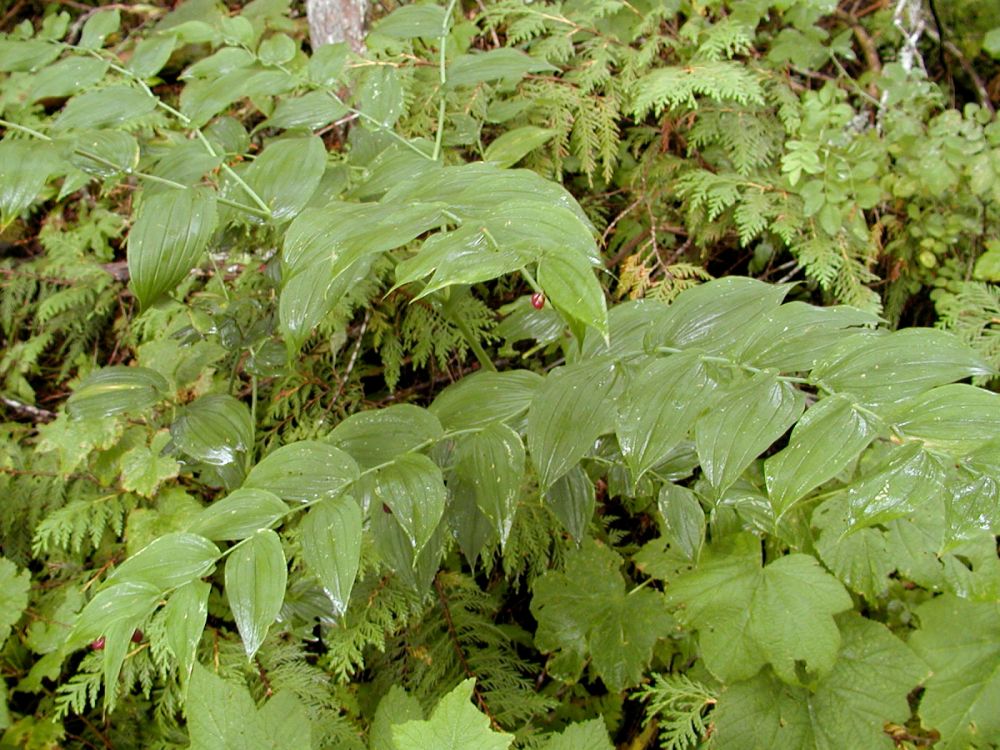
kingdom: Plantae
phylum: Tracheophyta
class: Liliopsida
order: Liliales
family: Liliaceae
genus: Streptopus
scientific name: Streptopus amplexifolius
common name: Clasp twisted stalk
